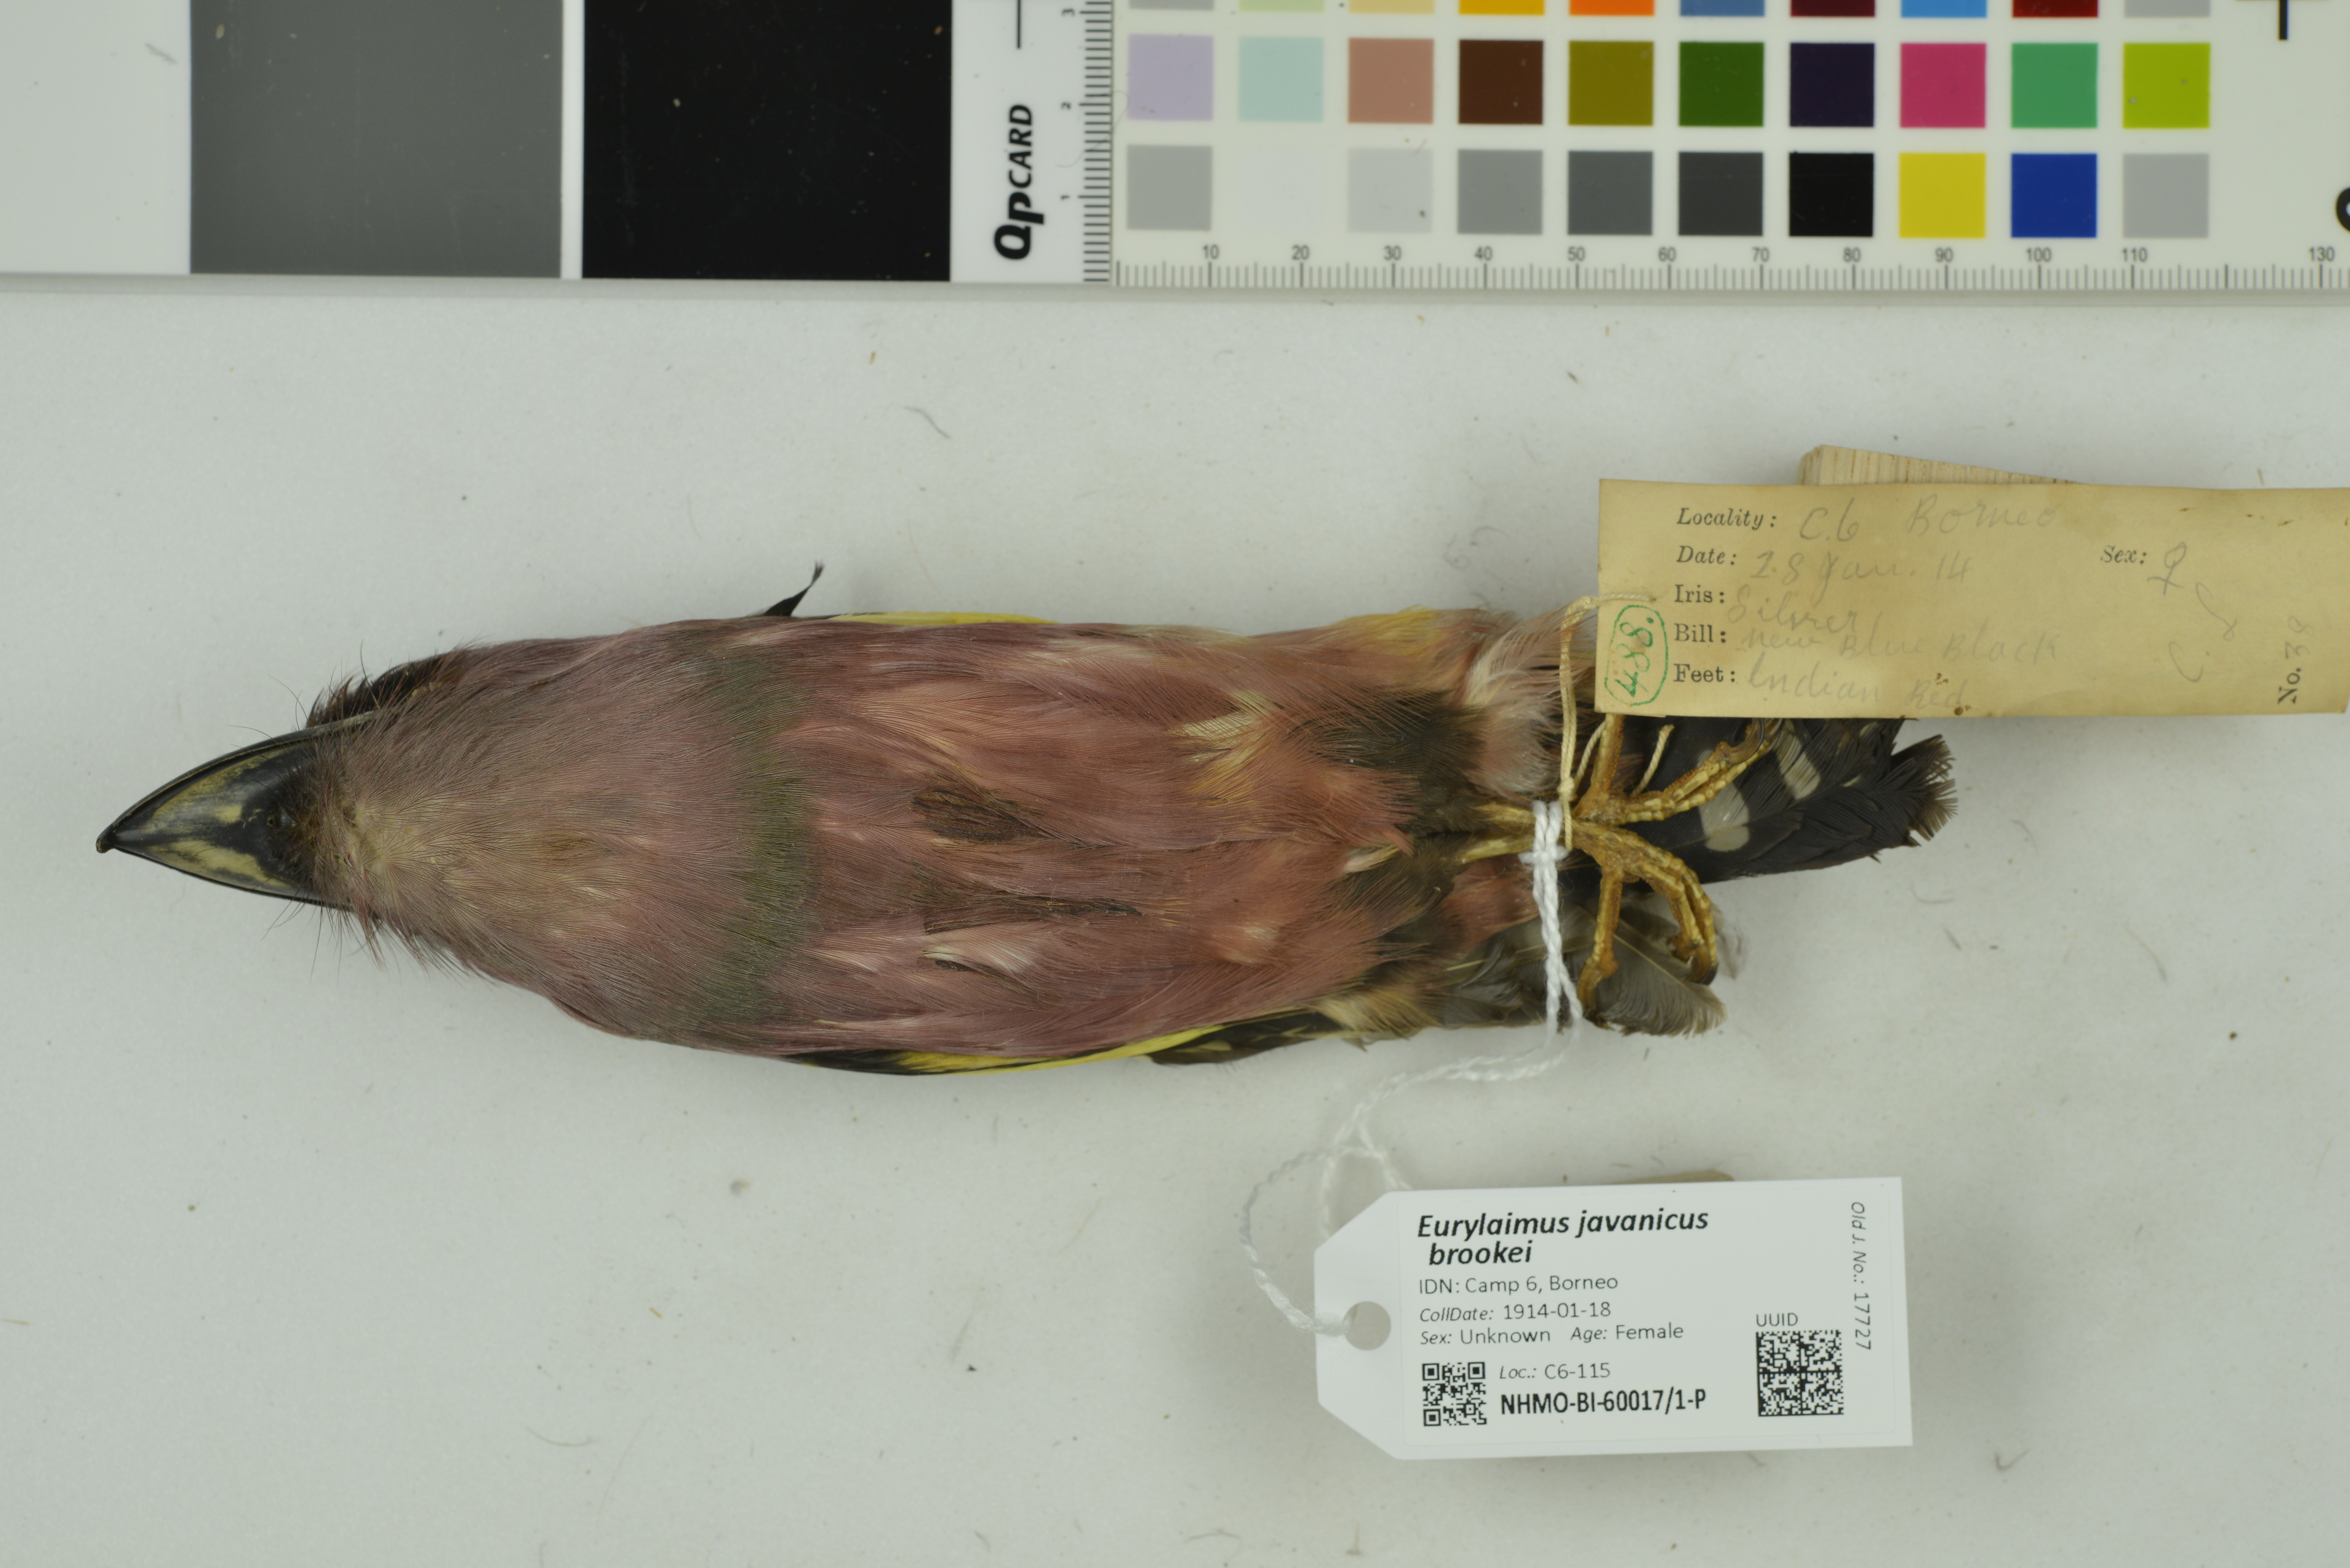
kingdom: Animalia
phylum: Chordata
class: Aves
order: Passeriformes
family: Eurylaimidae
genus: Eurylaimus
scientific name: Eurylaimus javanicus
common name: Banded broadbill
